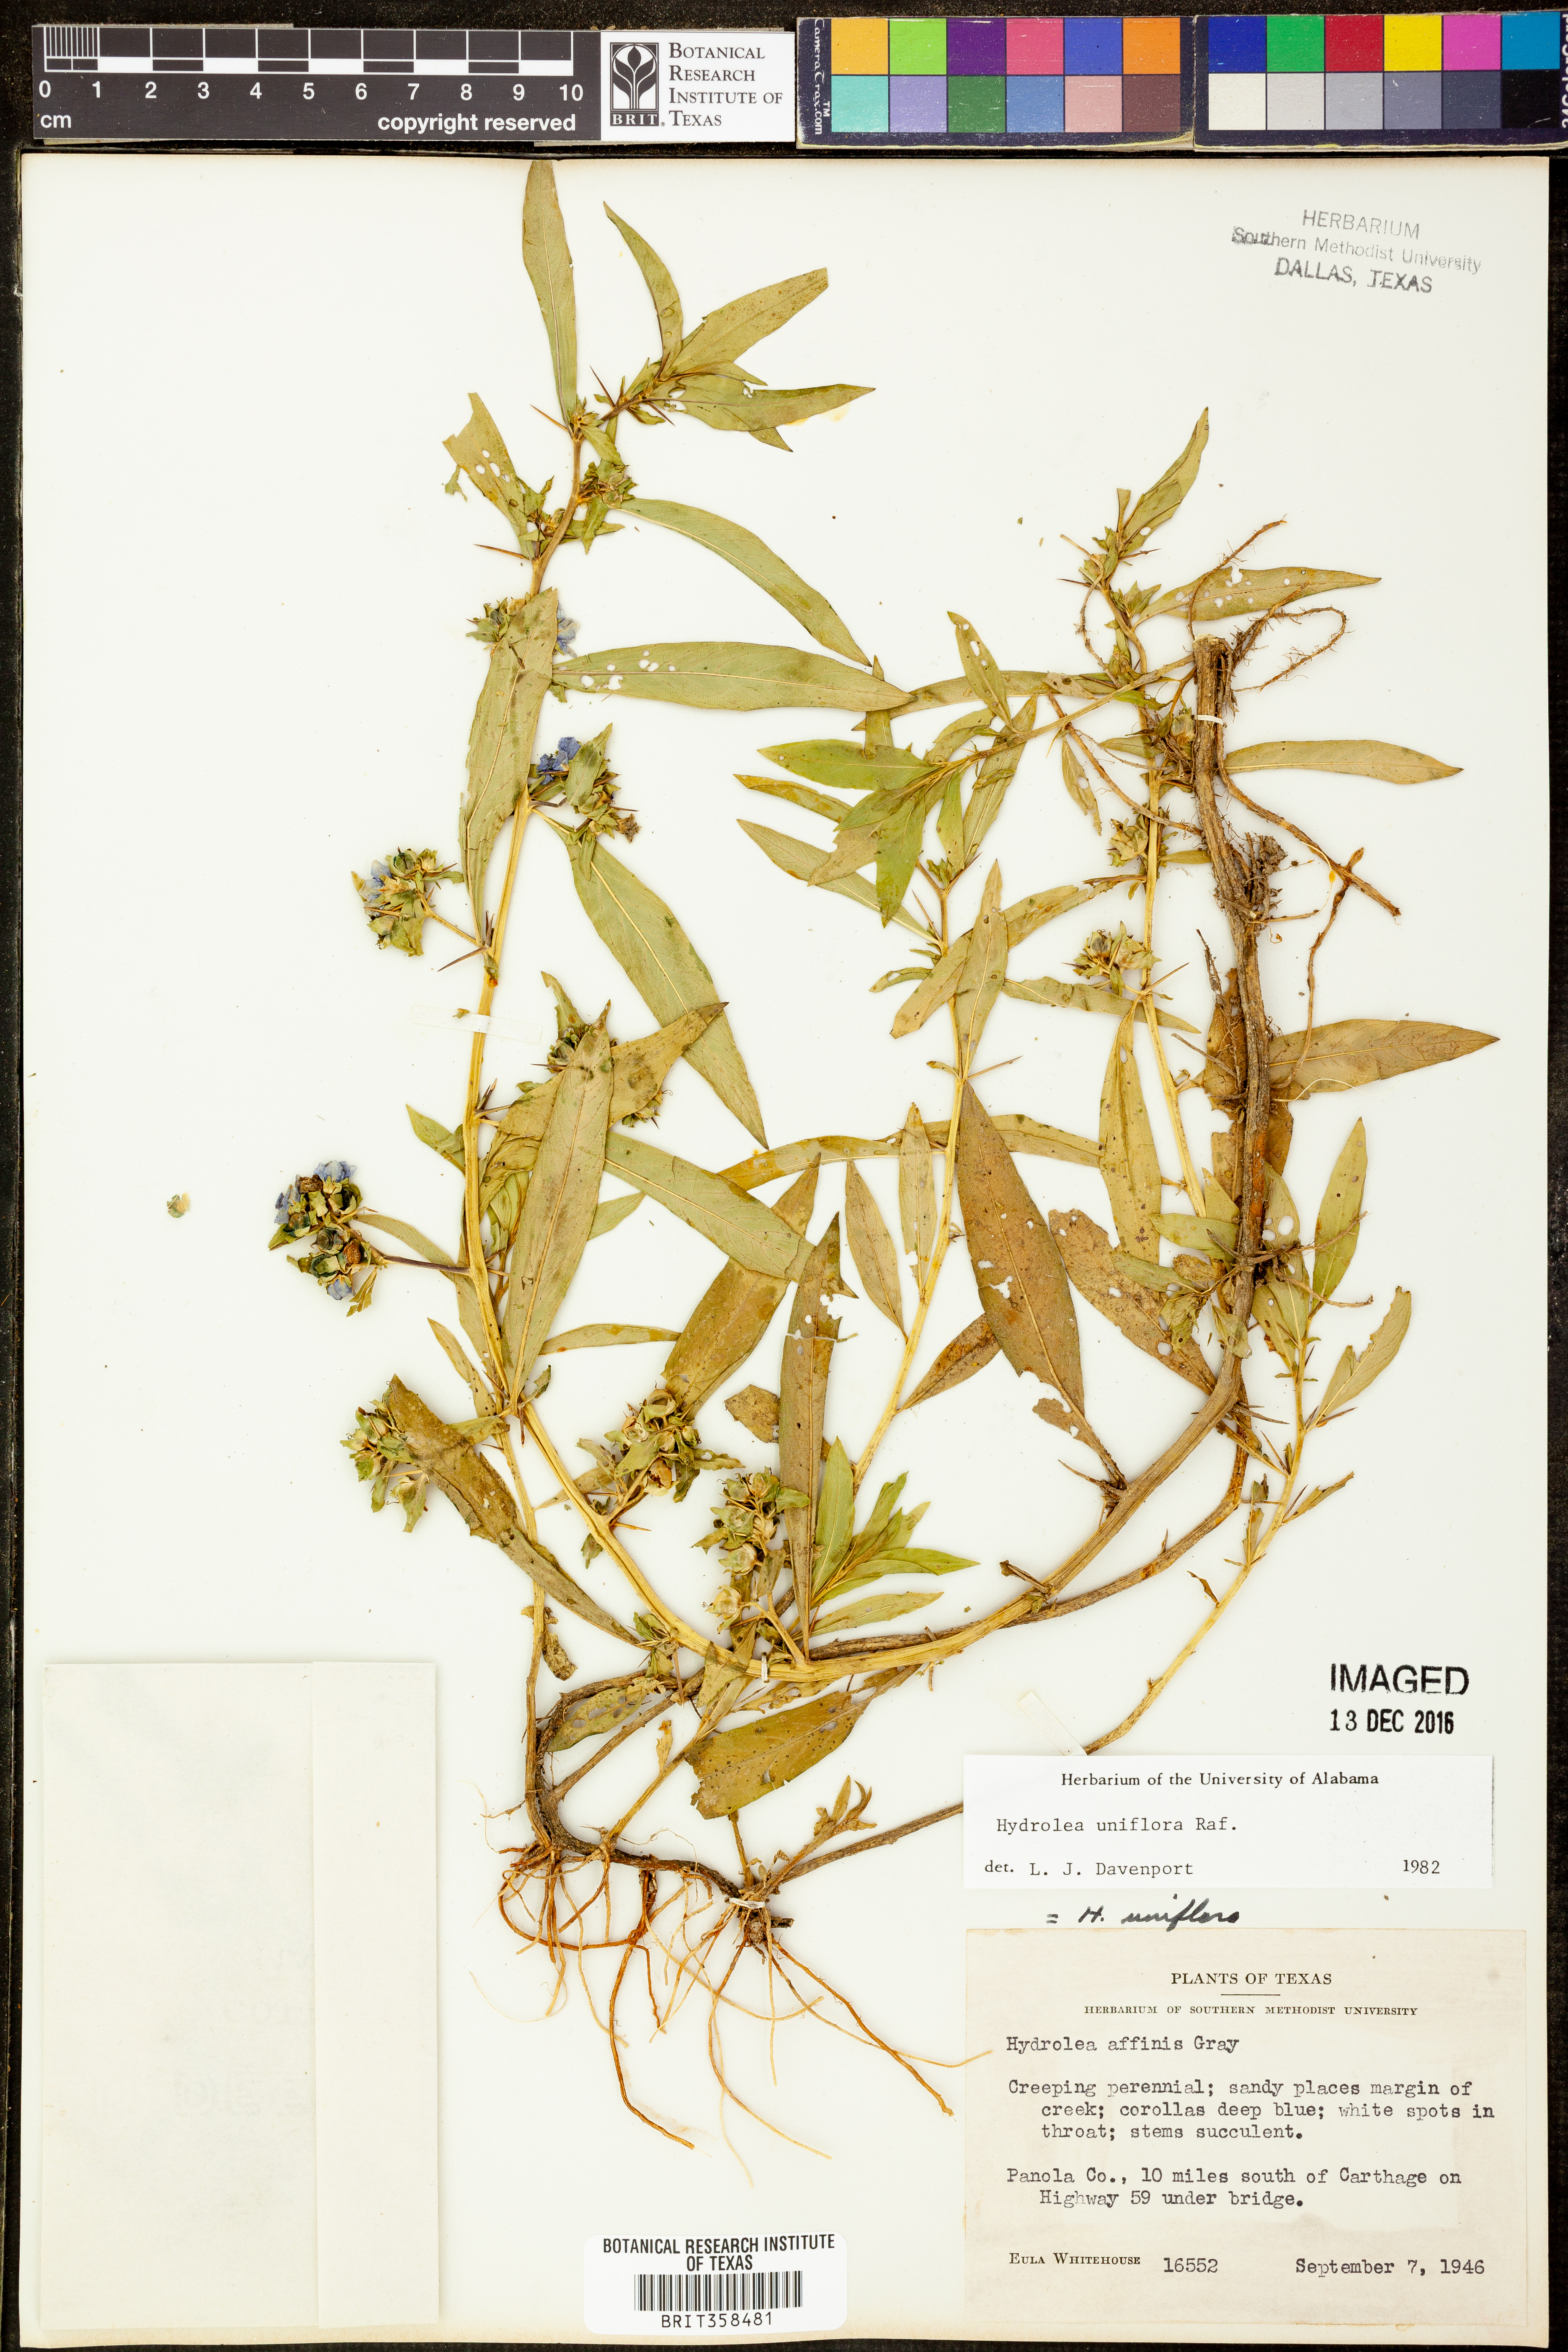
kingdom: Plantae
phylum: Tracheophyta
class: Magnoliopsida
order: Solanales
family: Hydroleaceae
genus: Hydrolea
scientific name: Hydrolea uniflora
